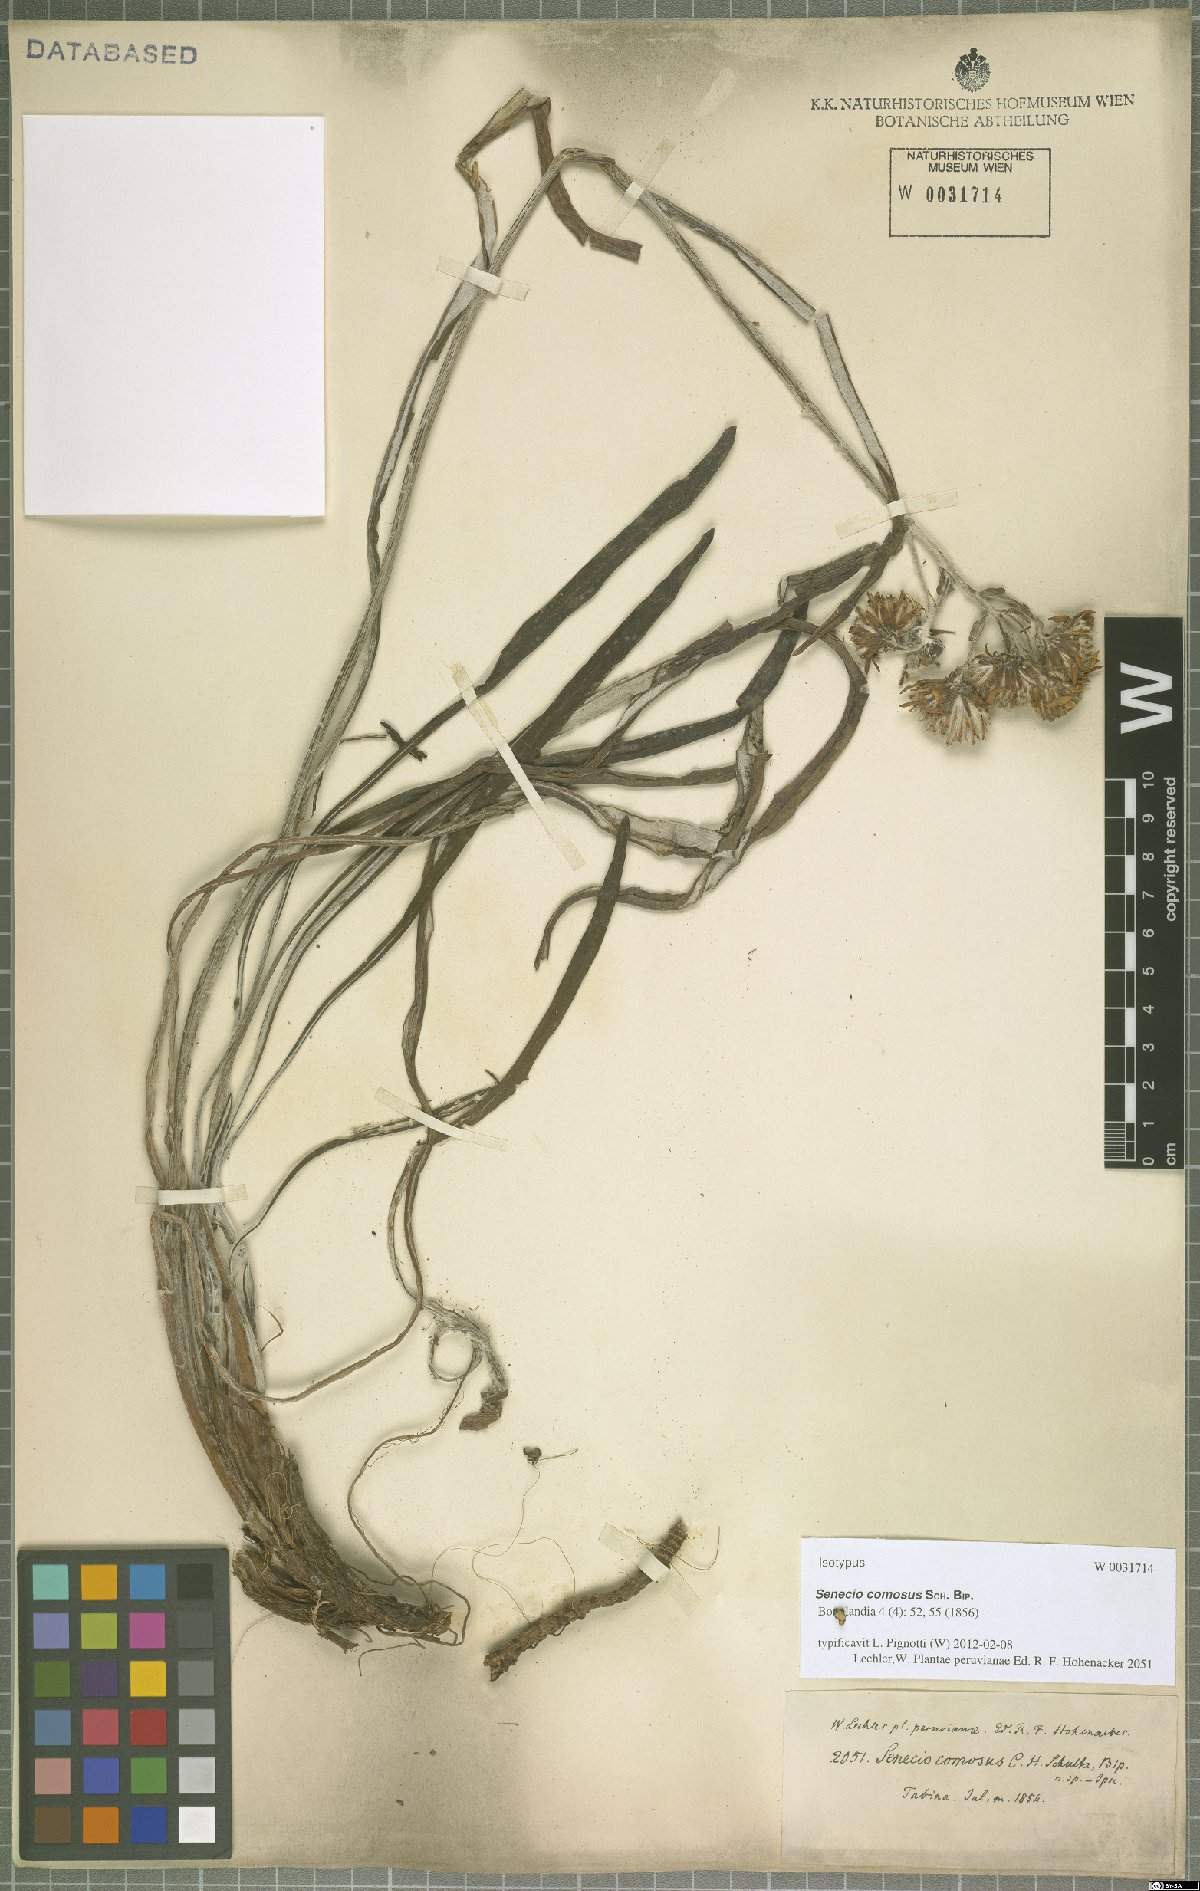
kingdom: Plantae
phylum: Tracheophyta
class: Magnoliopsida
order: Asterales
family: Asteraceae
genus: Senecio
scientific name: Senecio comosus
